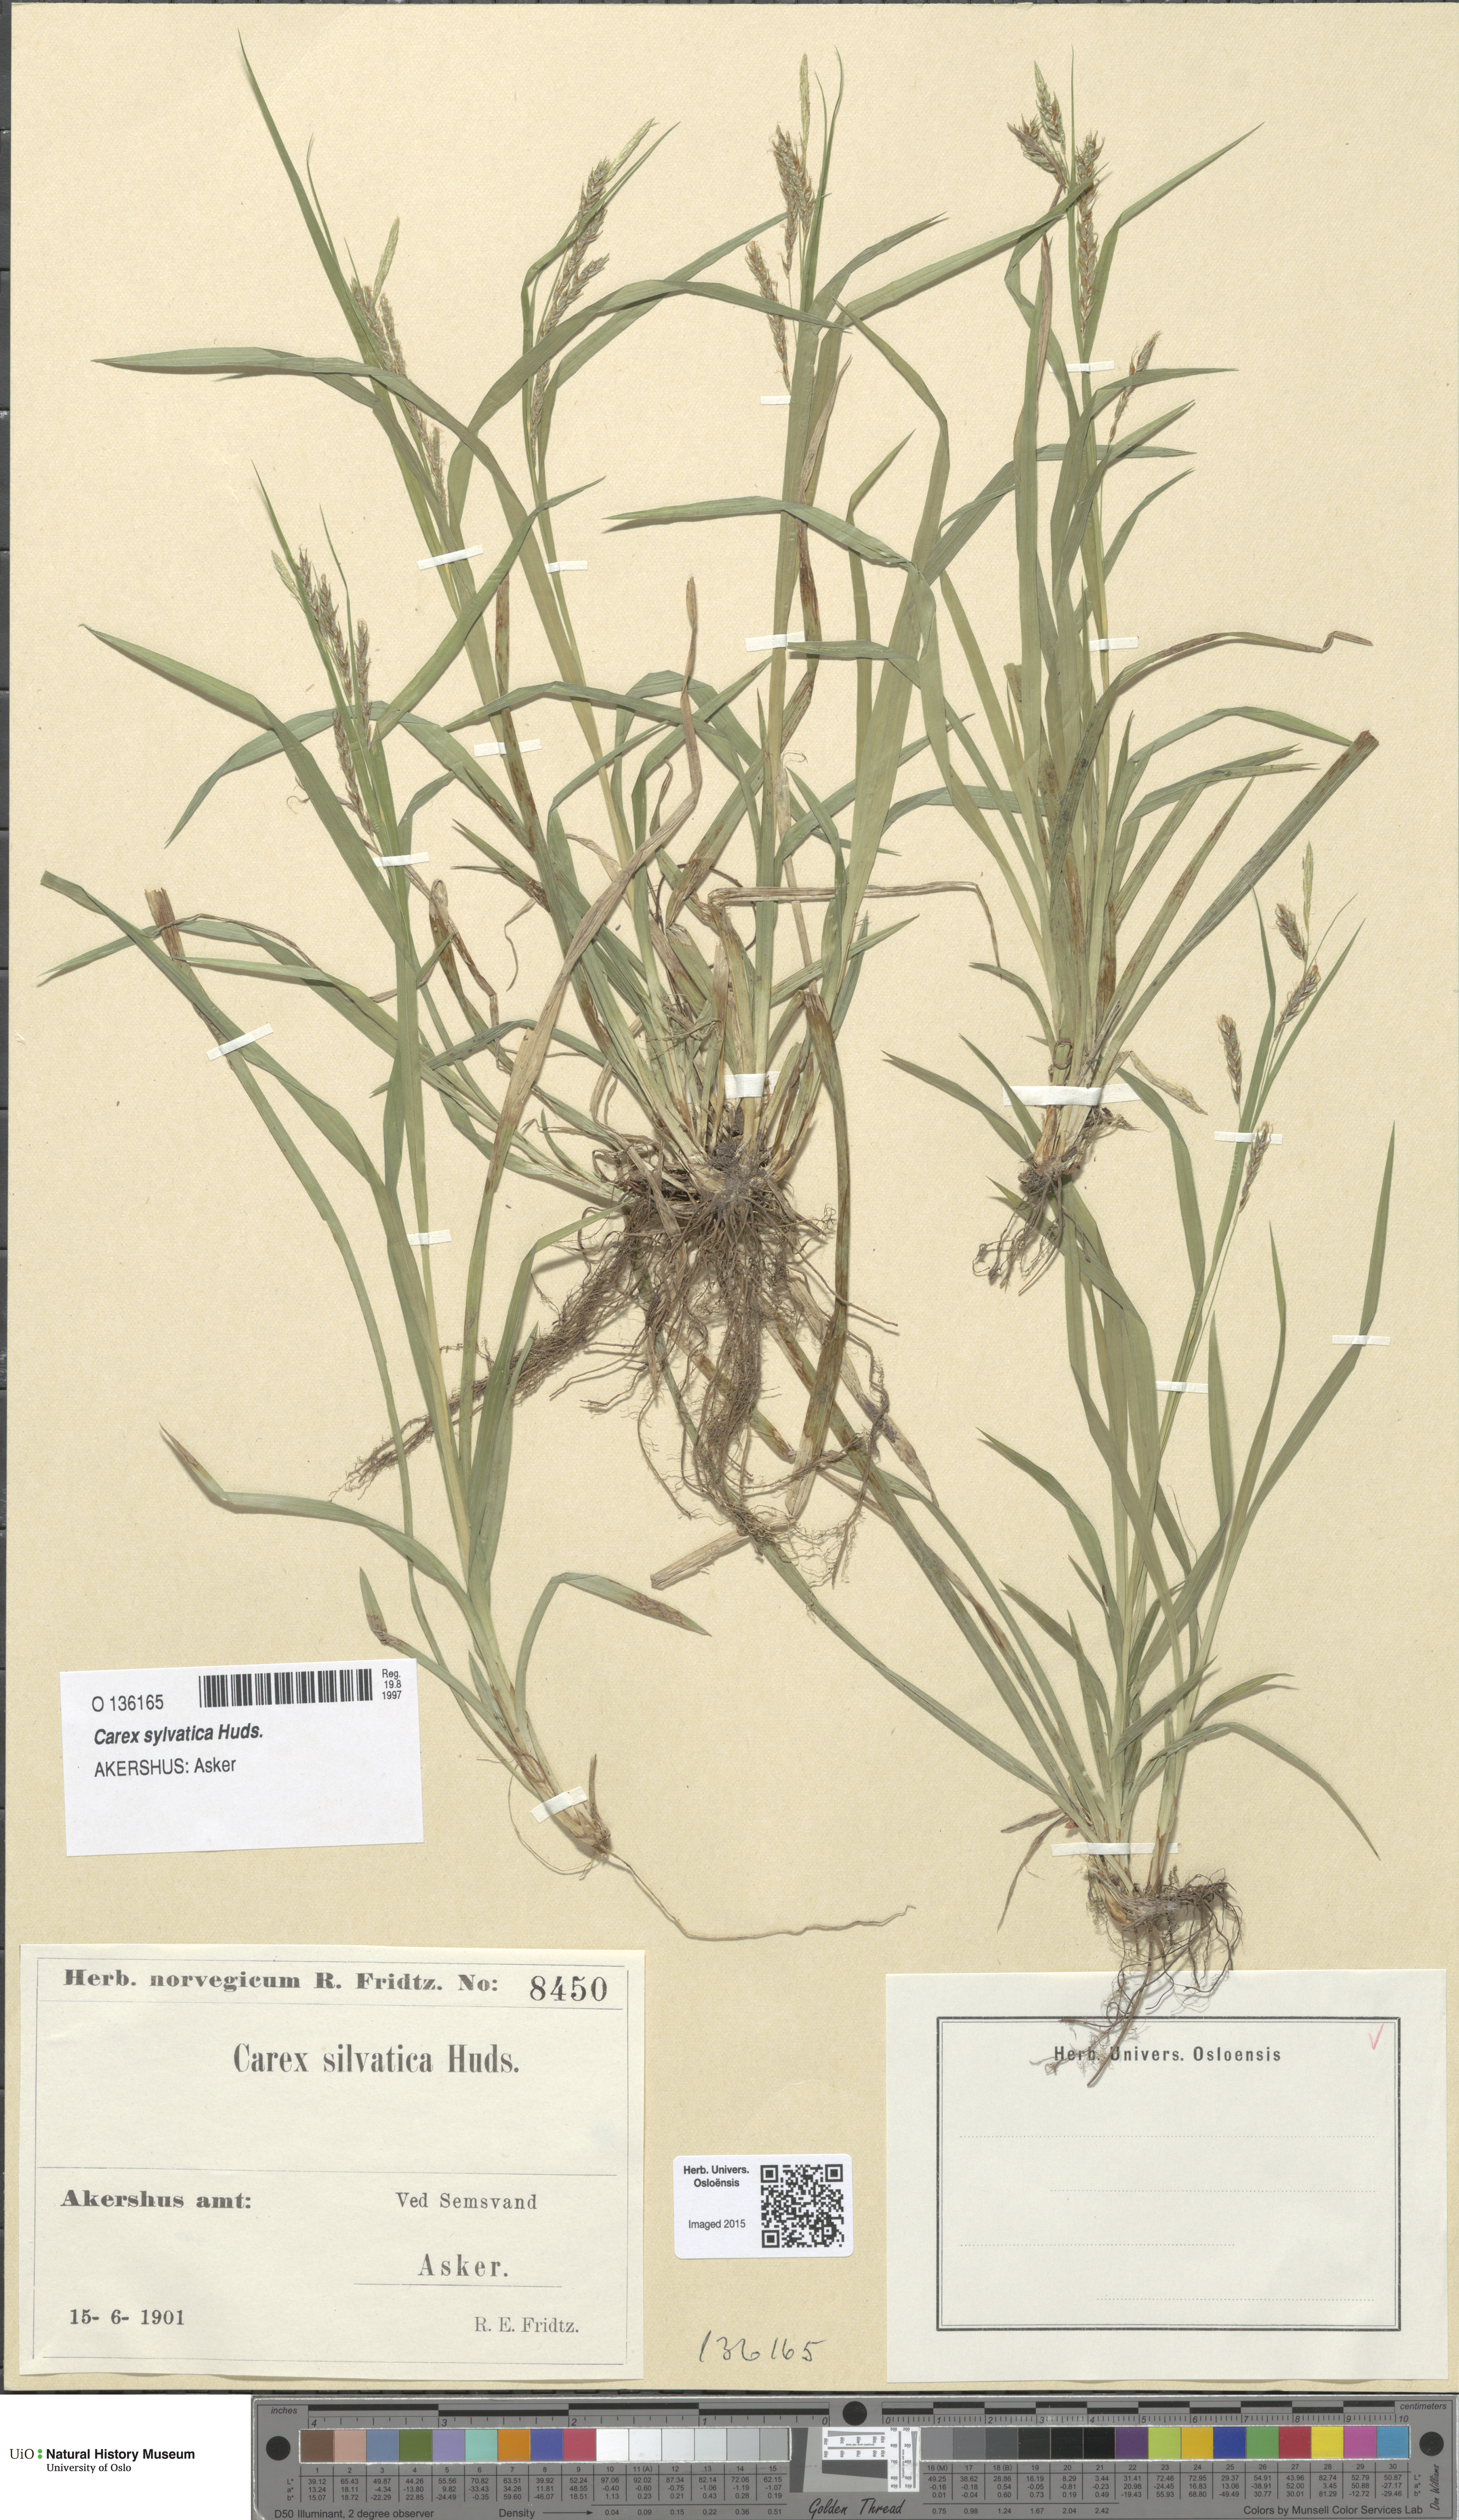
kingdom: Plantae
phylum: Tracheophyta
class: Liliopsida
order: Poales
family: Cyperaceae
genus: Carex
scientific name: Carex sylvatica
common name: Wood-sedge
